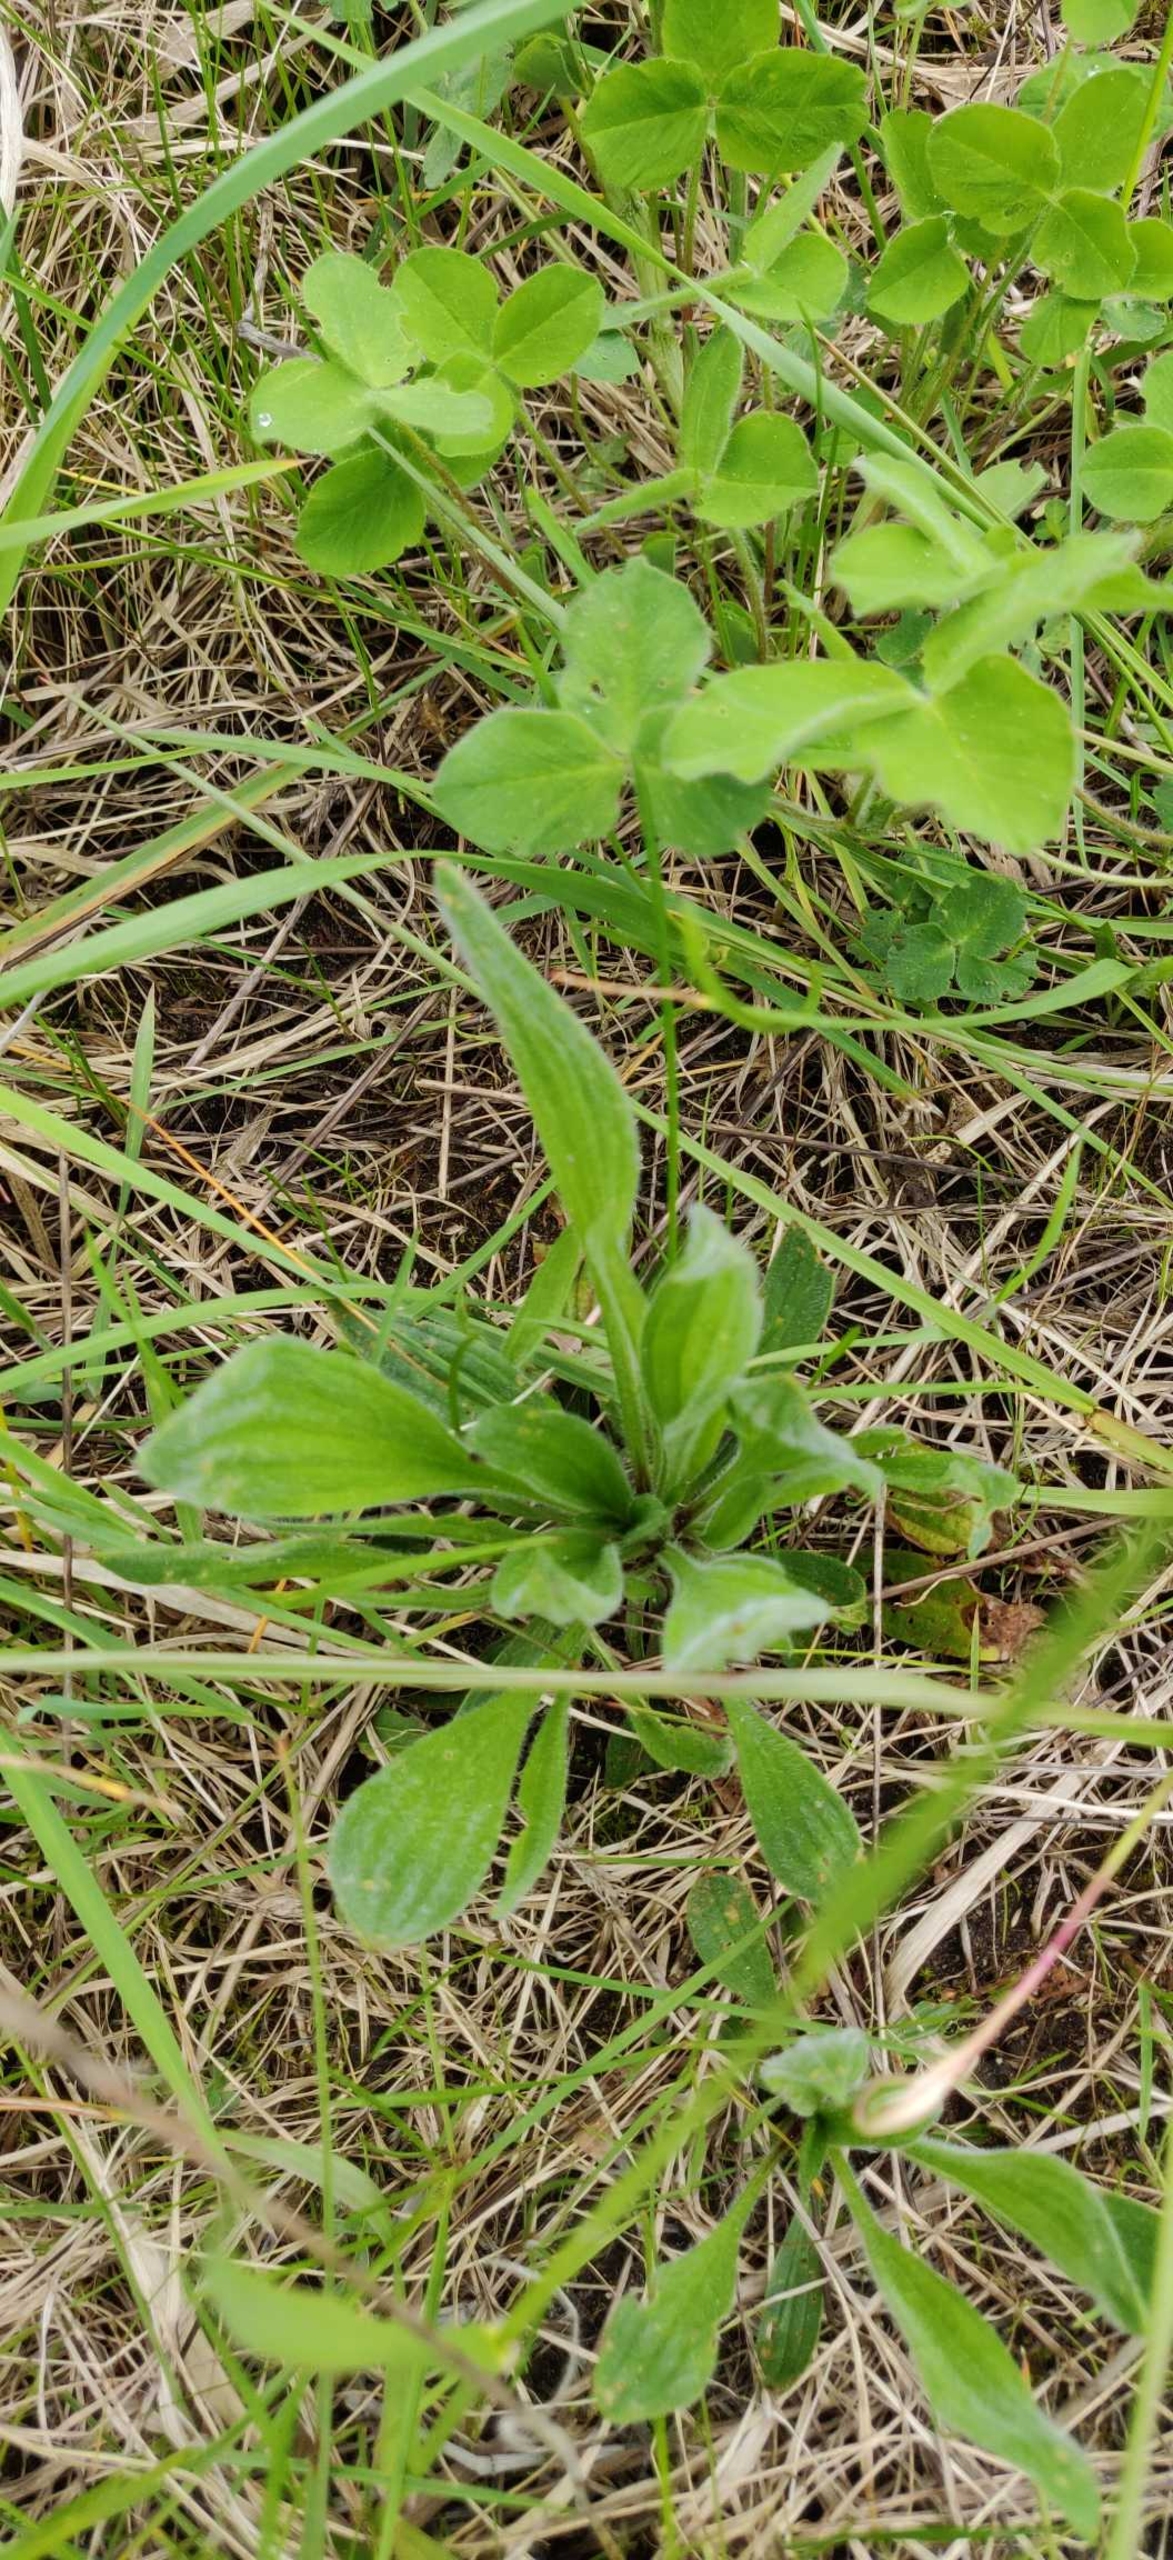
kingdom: Plantae
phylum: Tracheophyta
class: Magnoliopsida
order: Lamiales
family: Plantaginaceae
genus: Plantago
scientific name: Plantago lanceolata
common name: Lancet-vejbred
